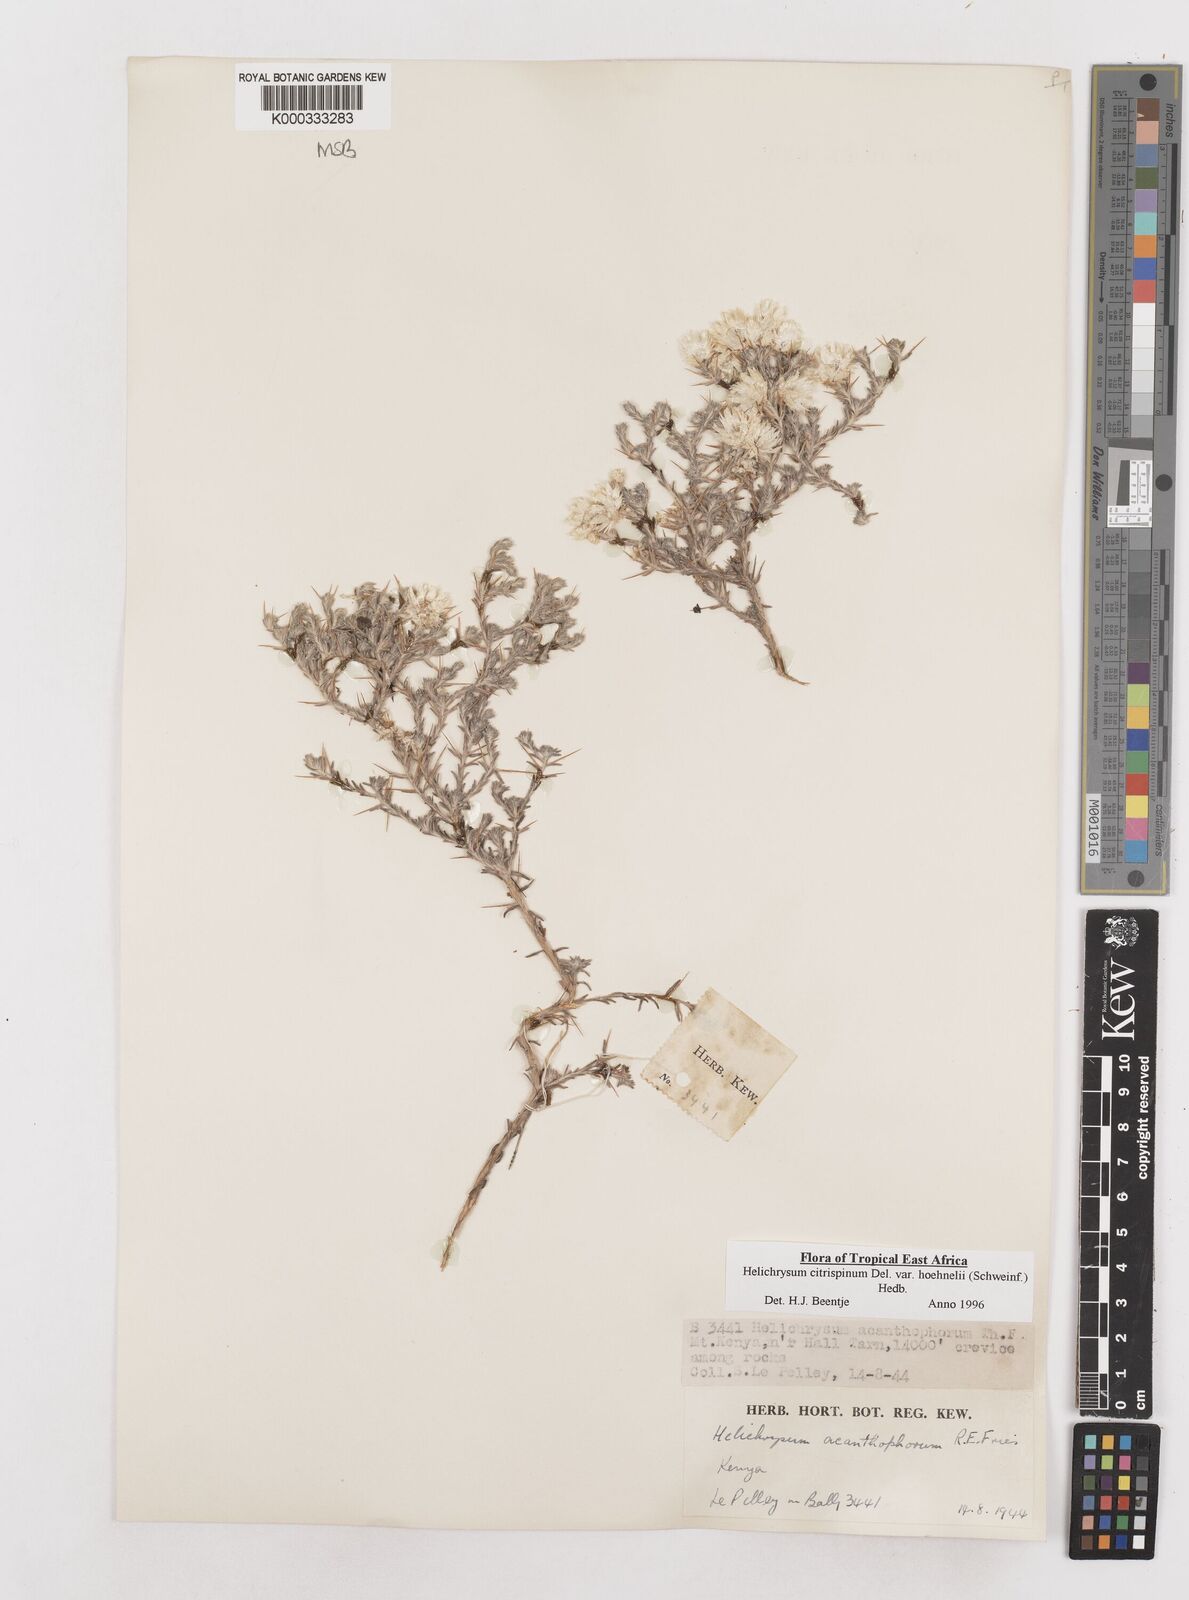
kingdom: Plantae
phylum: Tracheophyta
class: Magnoliopsida
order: Asterales
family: Asteraceae
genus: Helichrysum
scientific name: Helichrysum citrispinum
